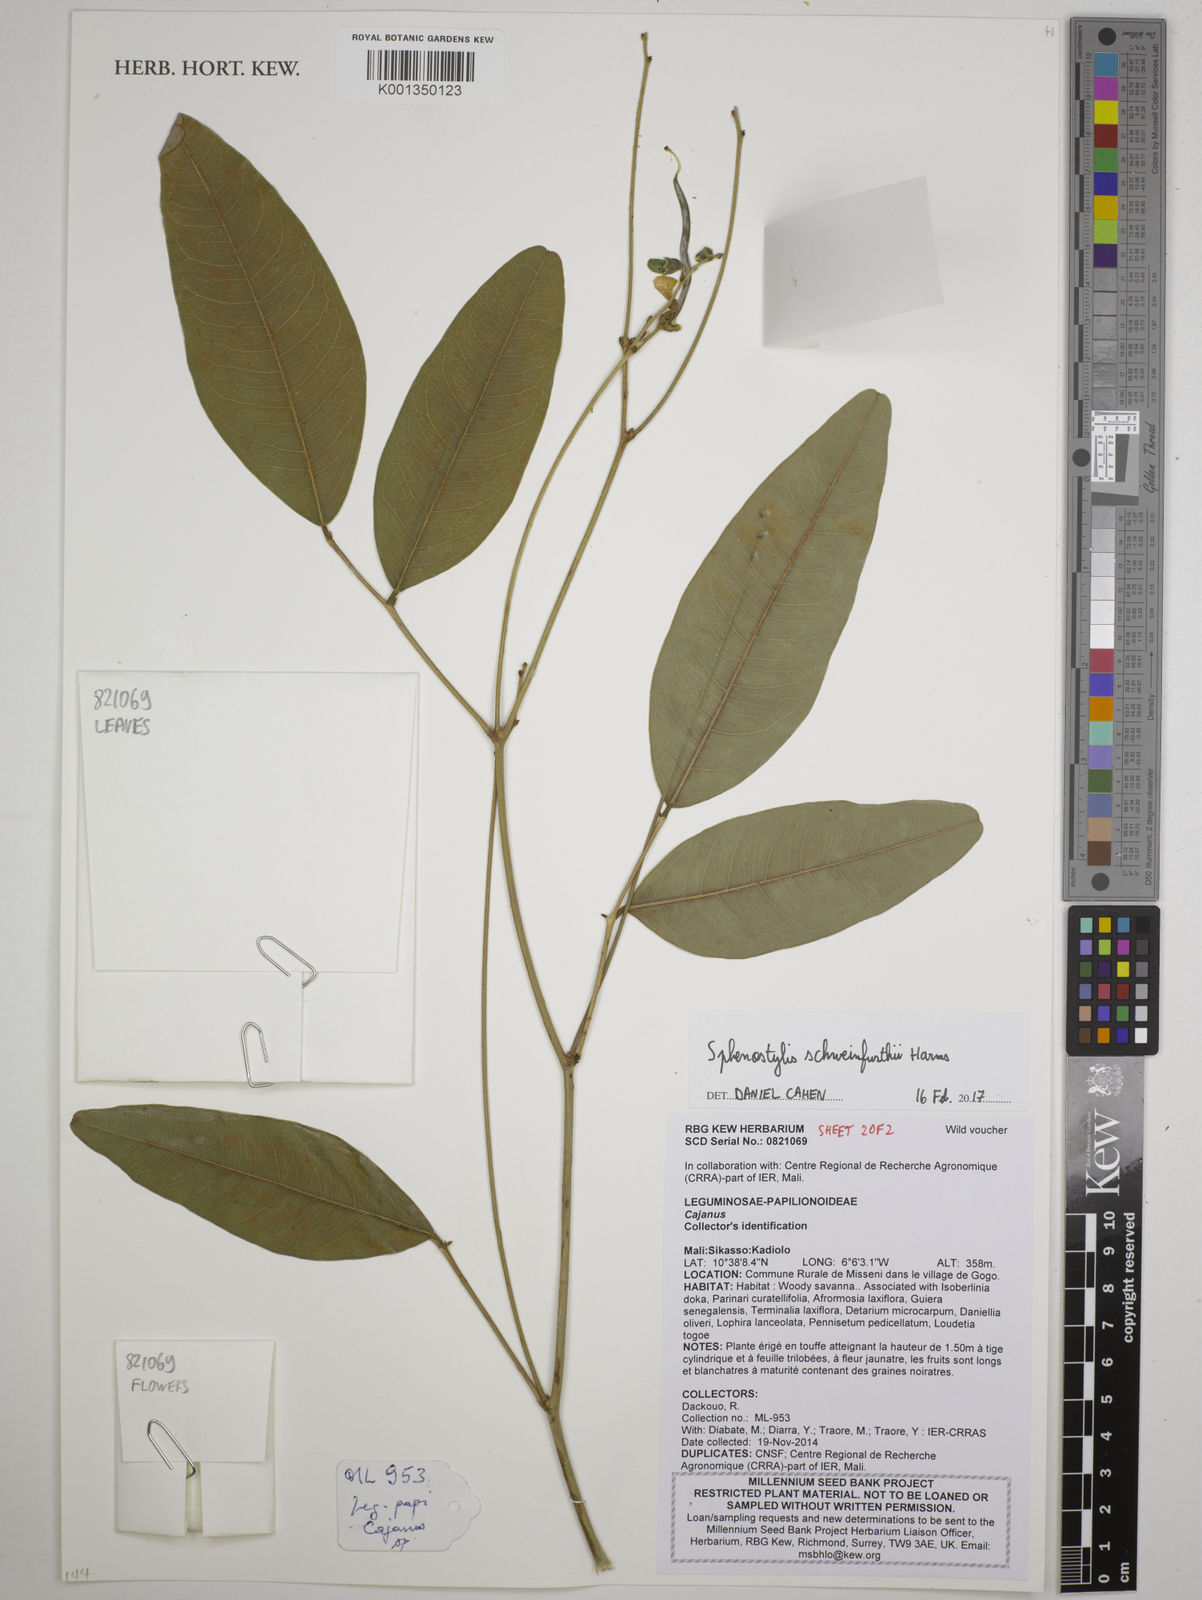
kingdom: Plantae
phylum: Tracheophyta
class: Magnoliopsida
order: Fabales
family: Fabaceae
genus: Sphenostylis
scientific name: Sphenostylis schweinfurthii
